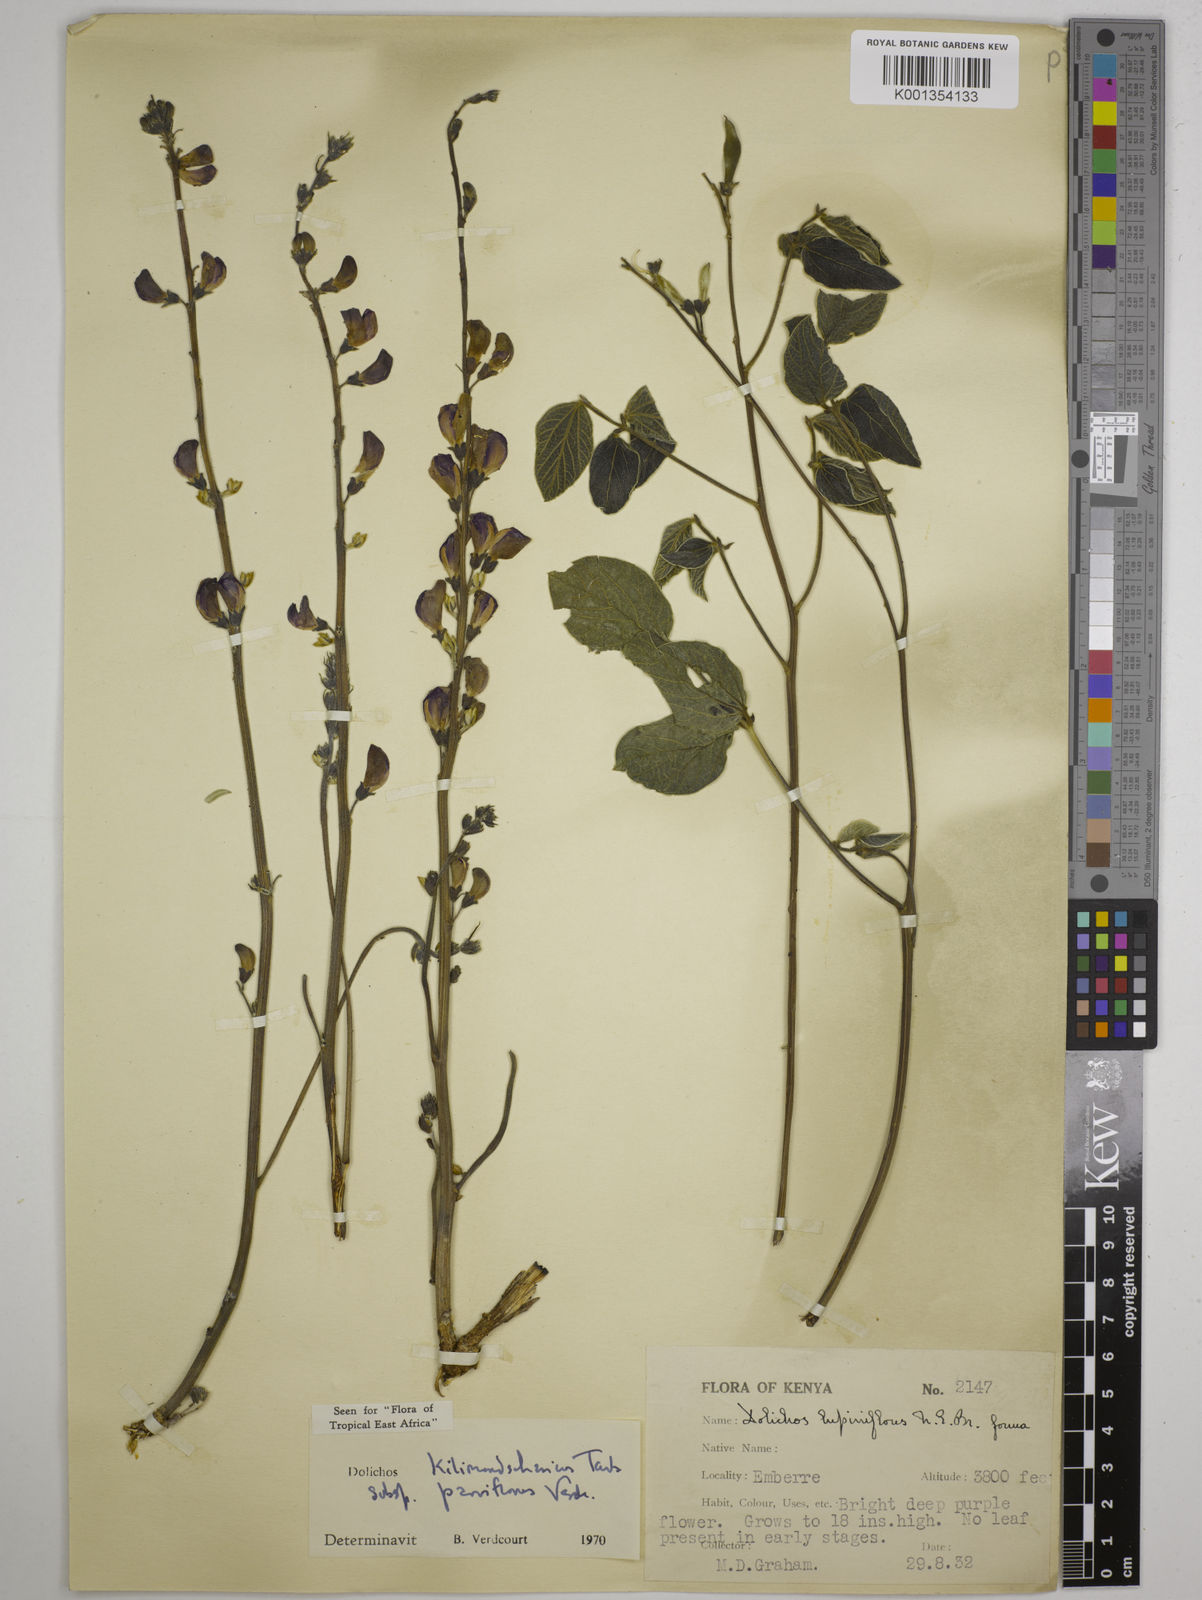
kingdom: Plantae
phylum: Tracheophyta
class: Magnoliopsida
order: Fabales
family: Fabaceae
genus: Dolichos
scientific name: Dolichos
